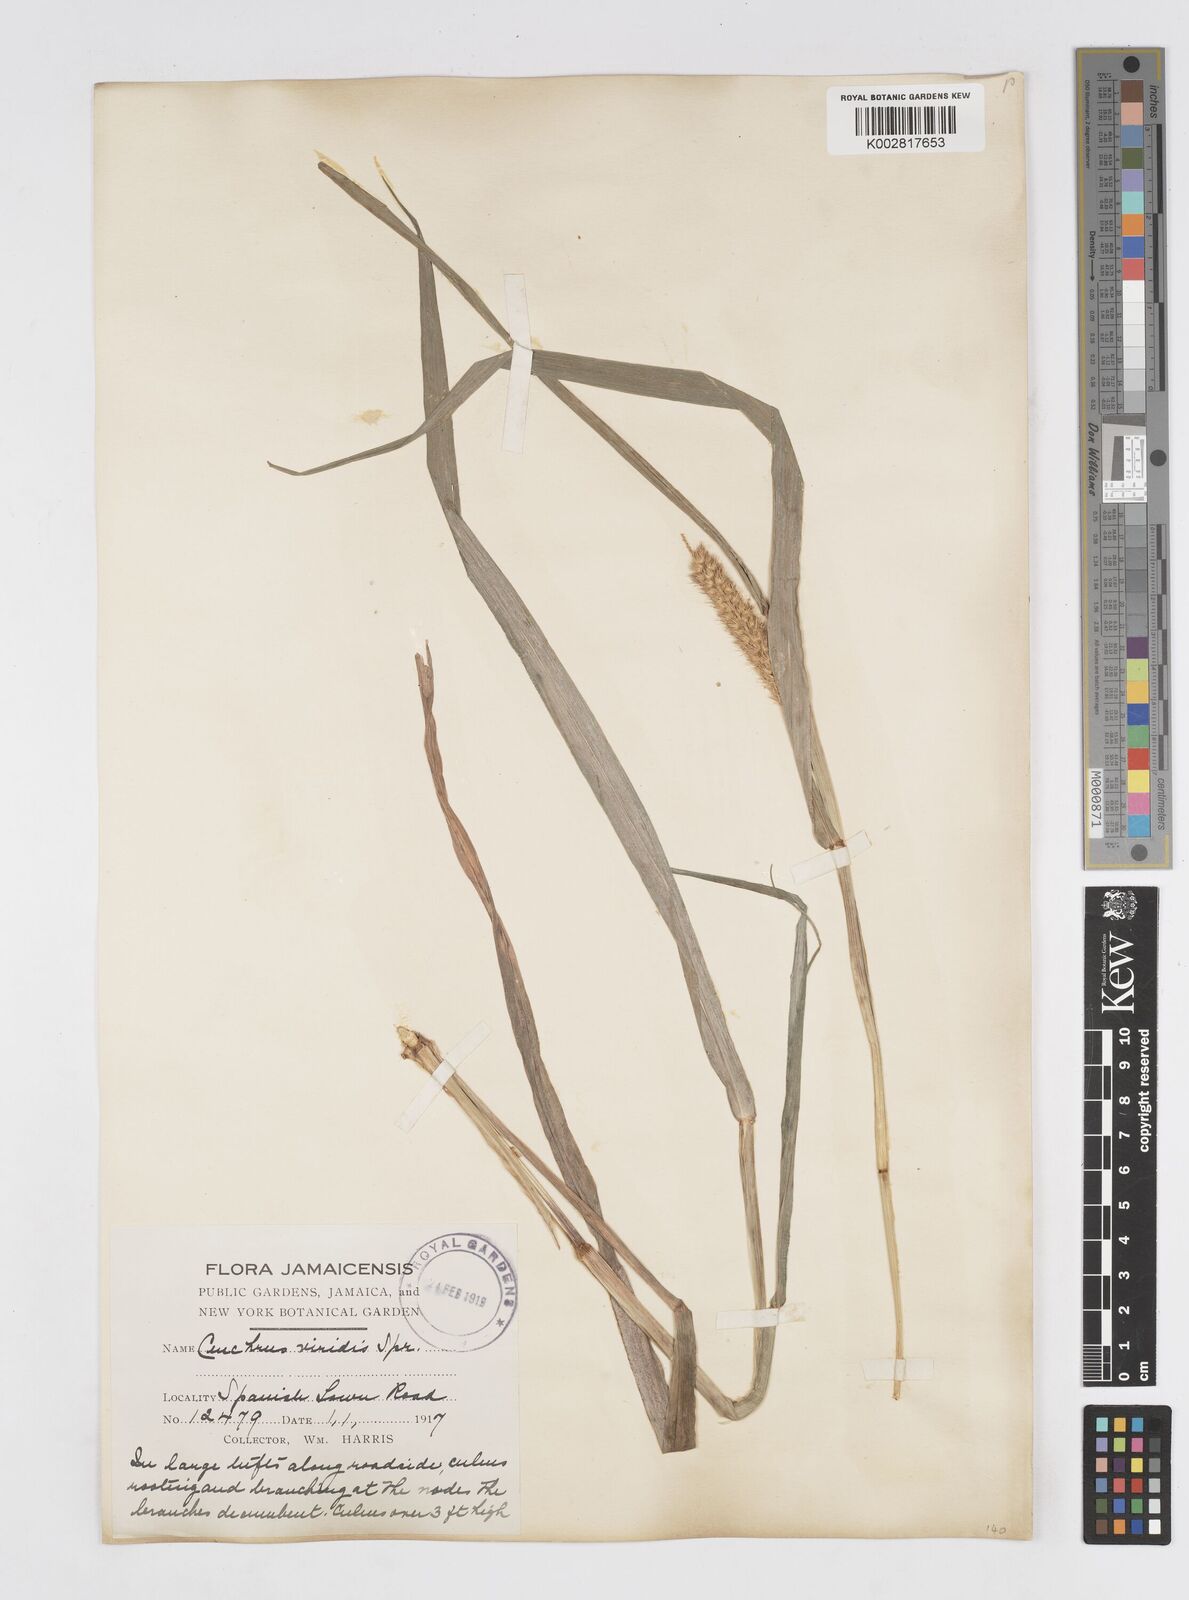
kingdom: Plantae
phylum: Tracheophyta
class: Liliopsida
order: Poales
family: Poaceae
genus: Cenchrus
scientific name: Cenchrus brownii
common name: Slim-bristle sandbur
